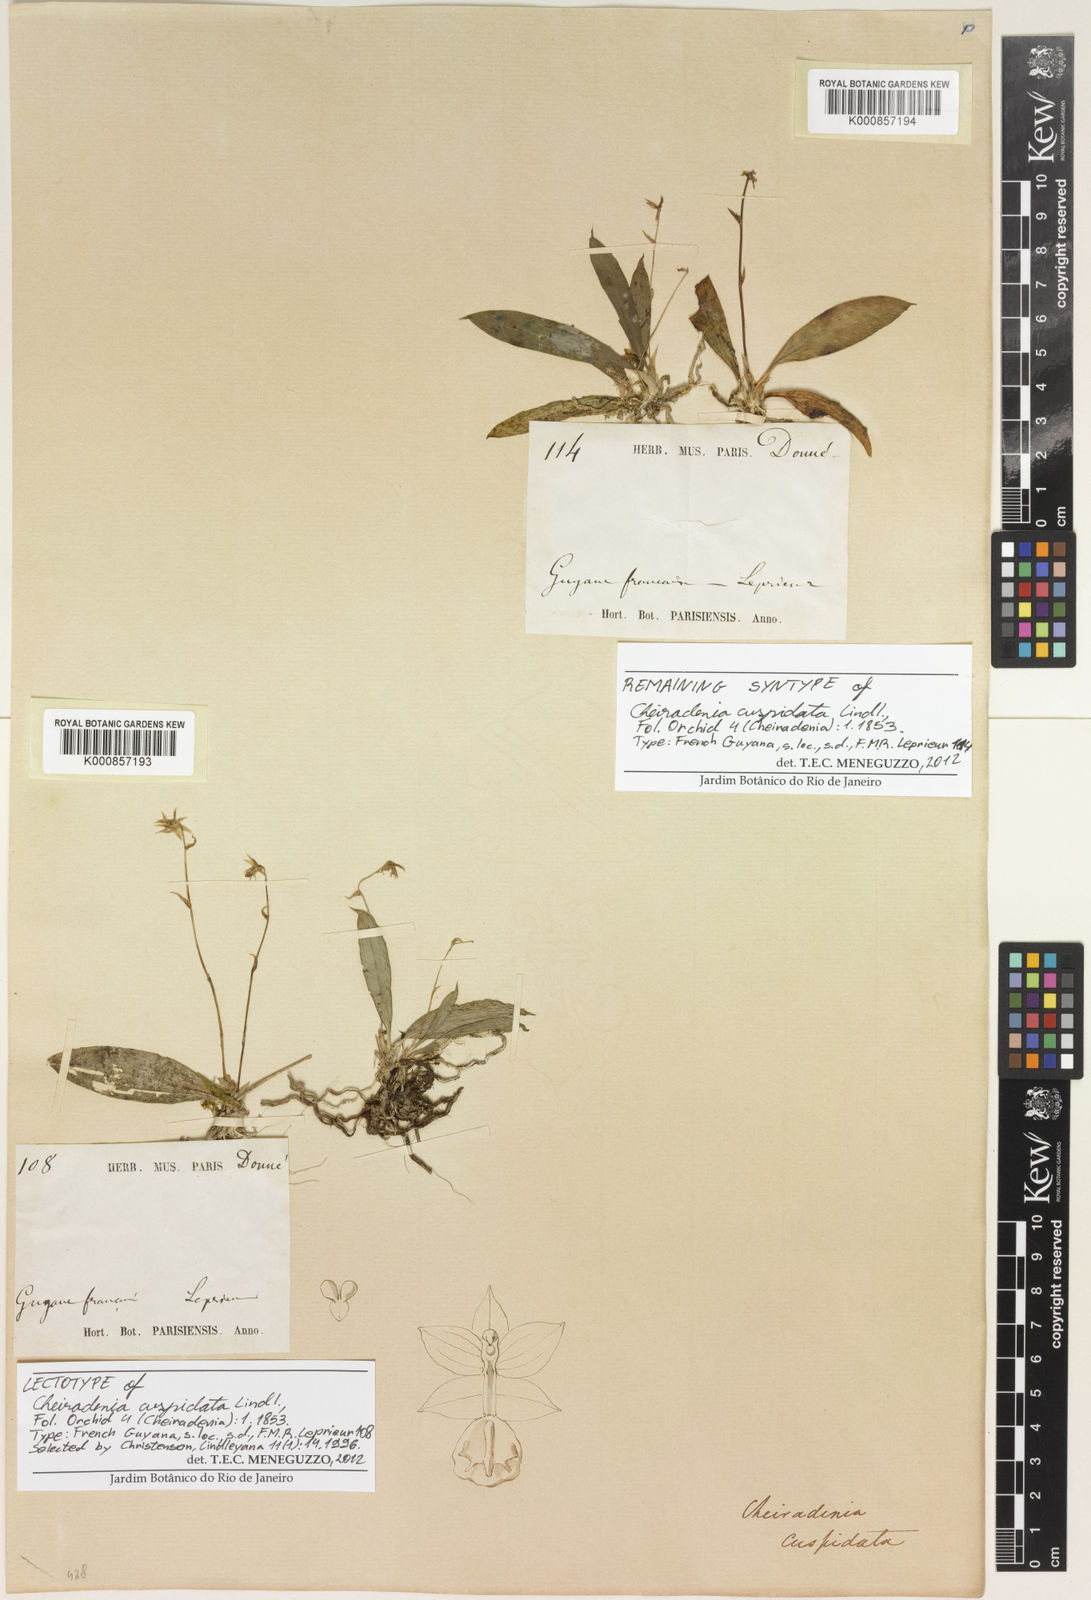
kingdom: Plantae
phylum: Tracheophyta
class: Liliopsida
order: Asparagales
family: Orchidaceae
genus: Cheiradenia
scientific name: Cheiradenia cuspidata
